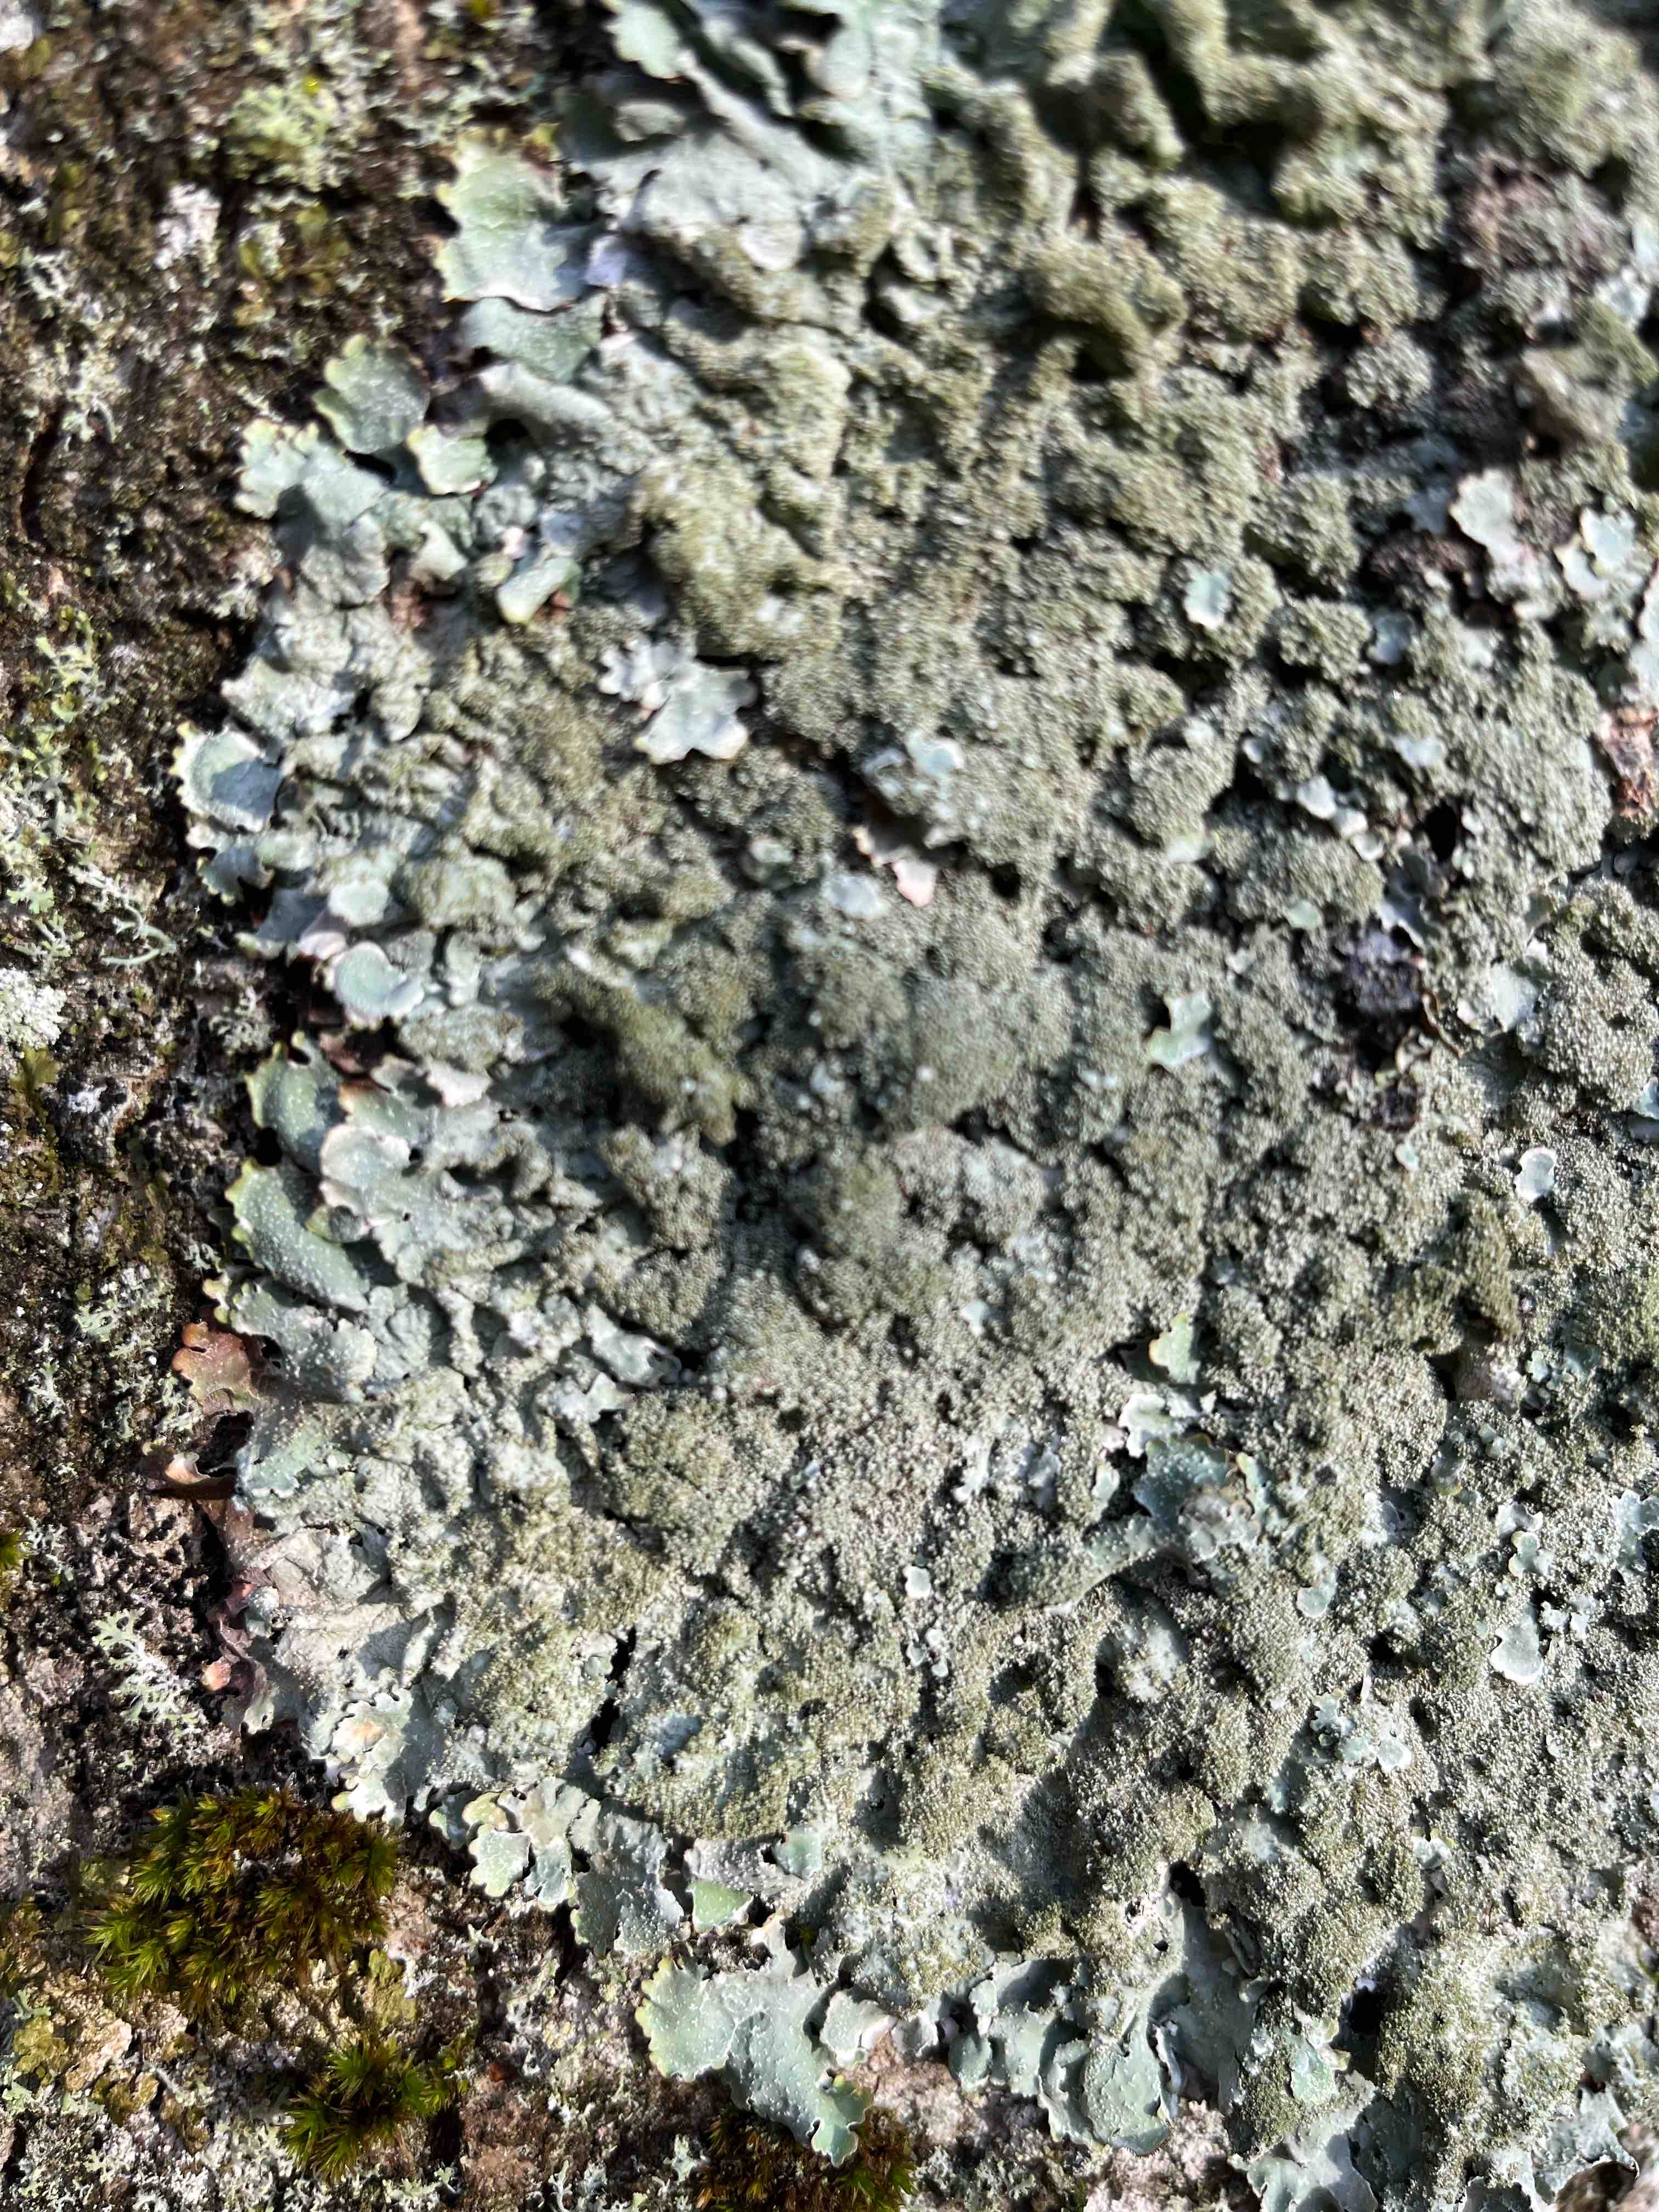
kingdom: Fungi
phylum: Ascomycota
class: Lecanoromycetes
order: Lecanorales
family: Parmeliaceae
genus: Parmelia
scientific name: Parmelia
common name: farve-skållav
